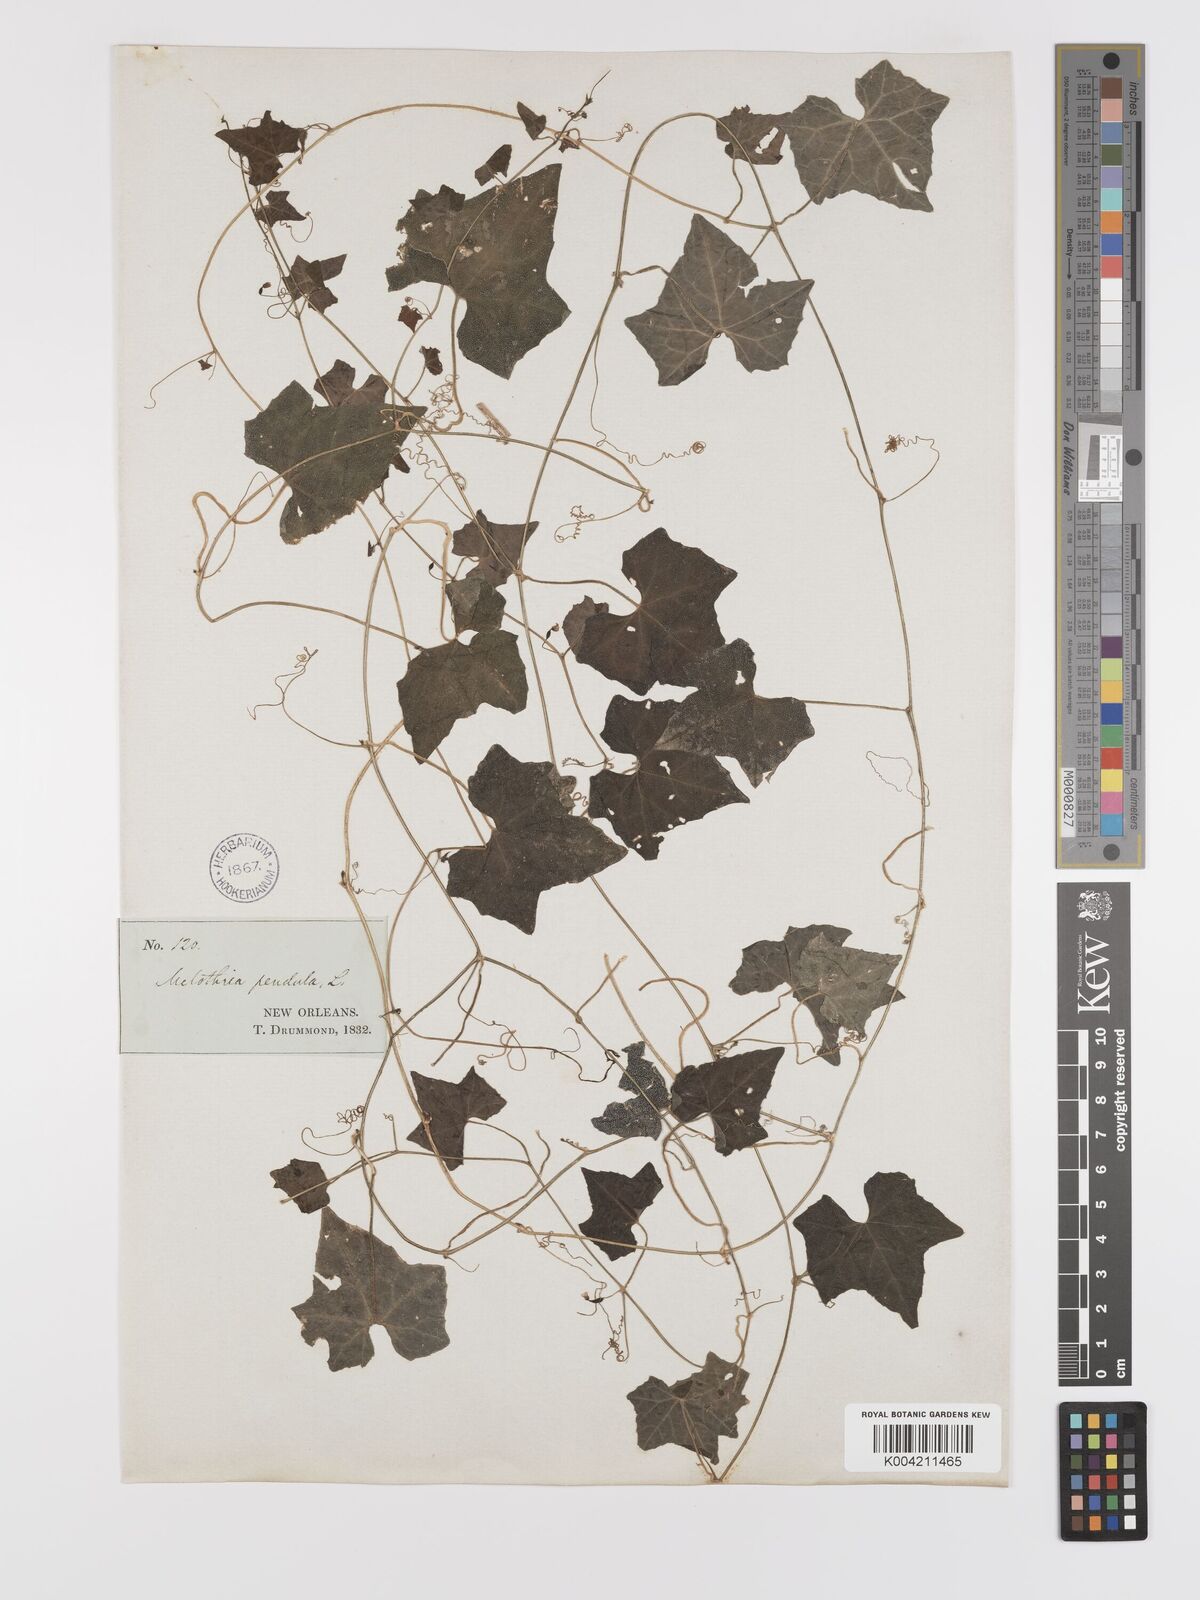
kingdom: Plantae
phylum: Tracheophyta
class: Magnoliopsida
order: Cucurbitales
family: Cucurbitaceae
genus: Melothria
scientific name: Melothria pendula
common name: Creeping-cucumber
